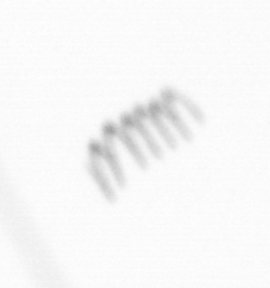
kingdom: Chromista
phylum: Ochrophyta
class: Bacillariophyceae
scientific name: Bacillariophyceae
